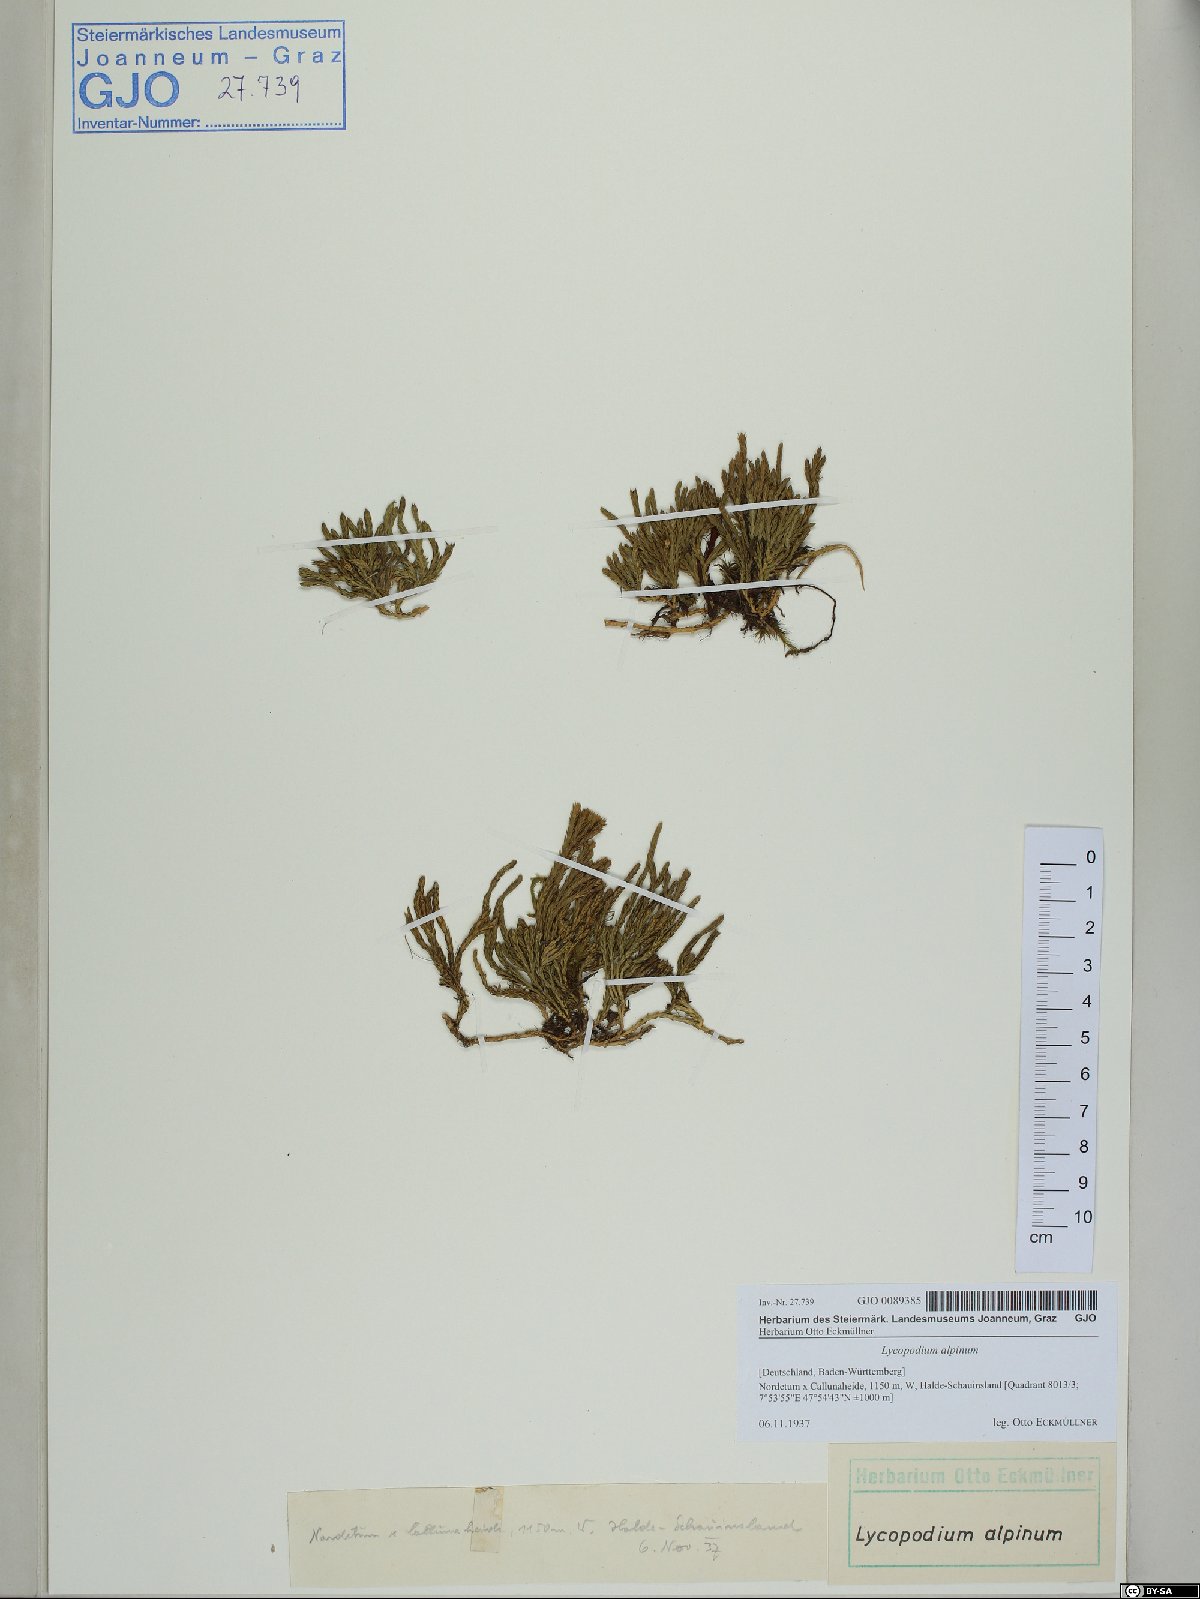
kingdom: Plantae
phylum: Tracheophyta
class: Lycopodiopsida
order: Lycopodiales
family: Lycopodiaceae
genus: Diphasiastrum
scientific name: Diphasiastrum alpinum
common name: Alpine clubmoss
